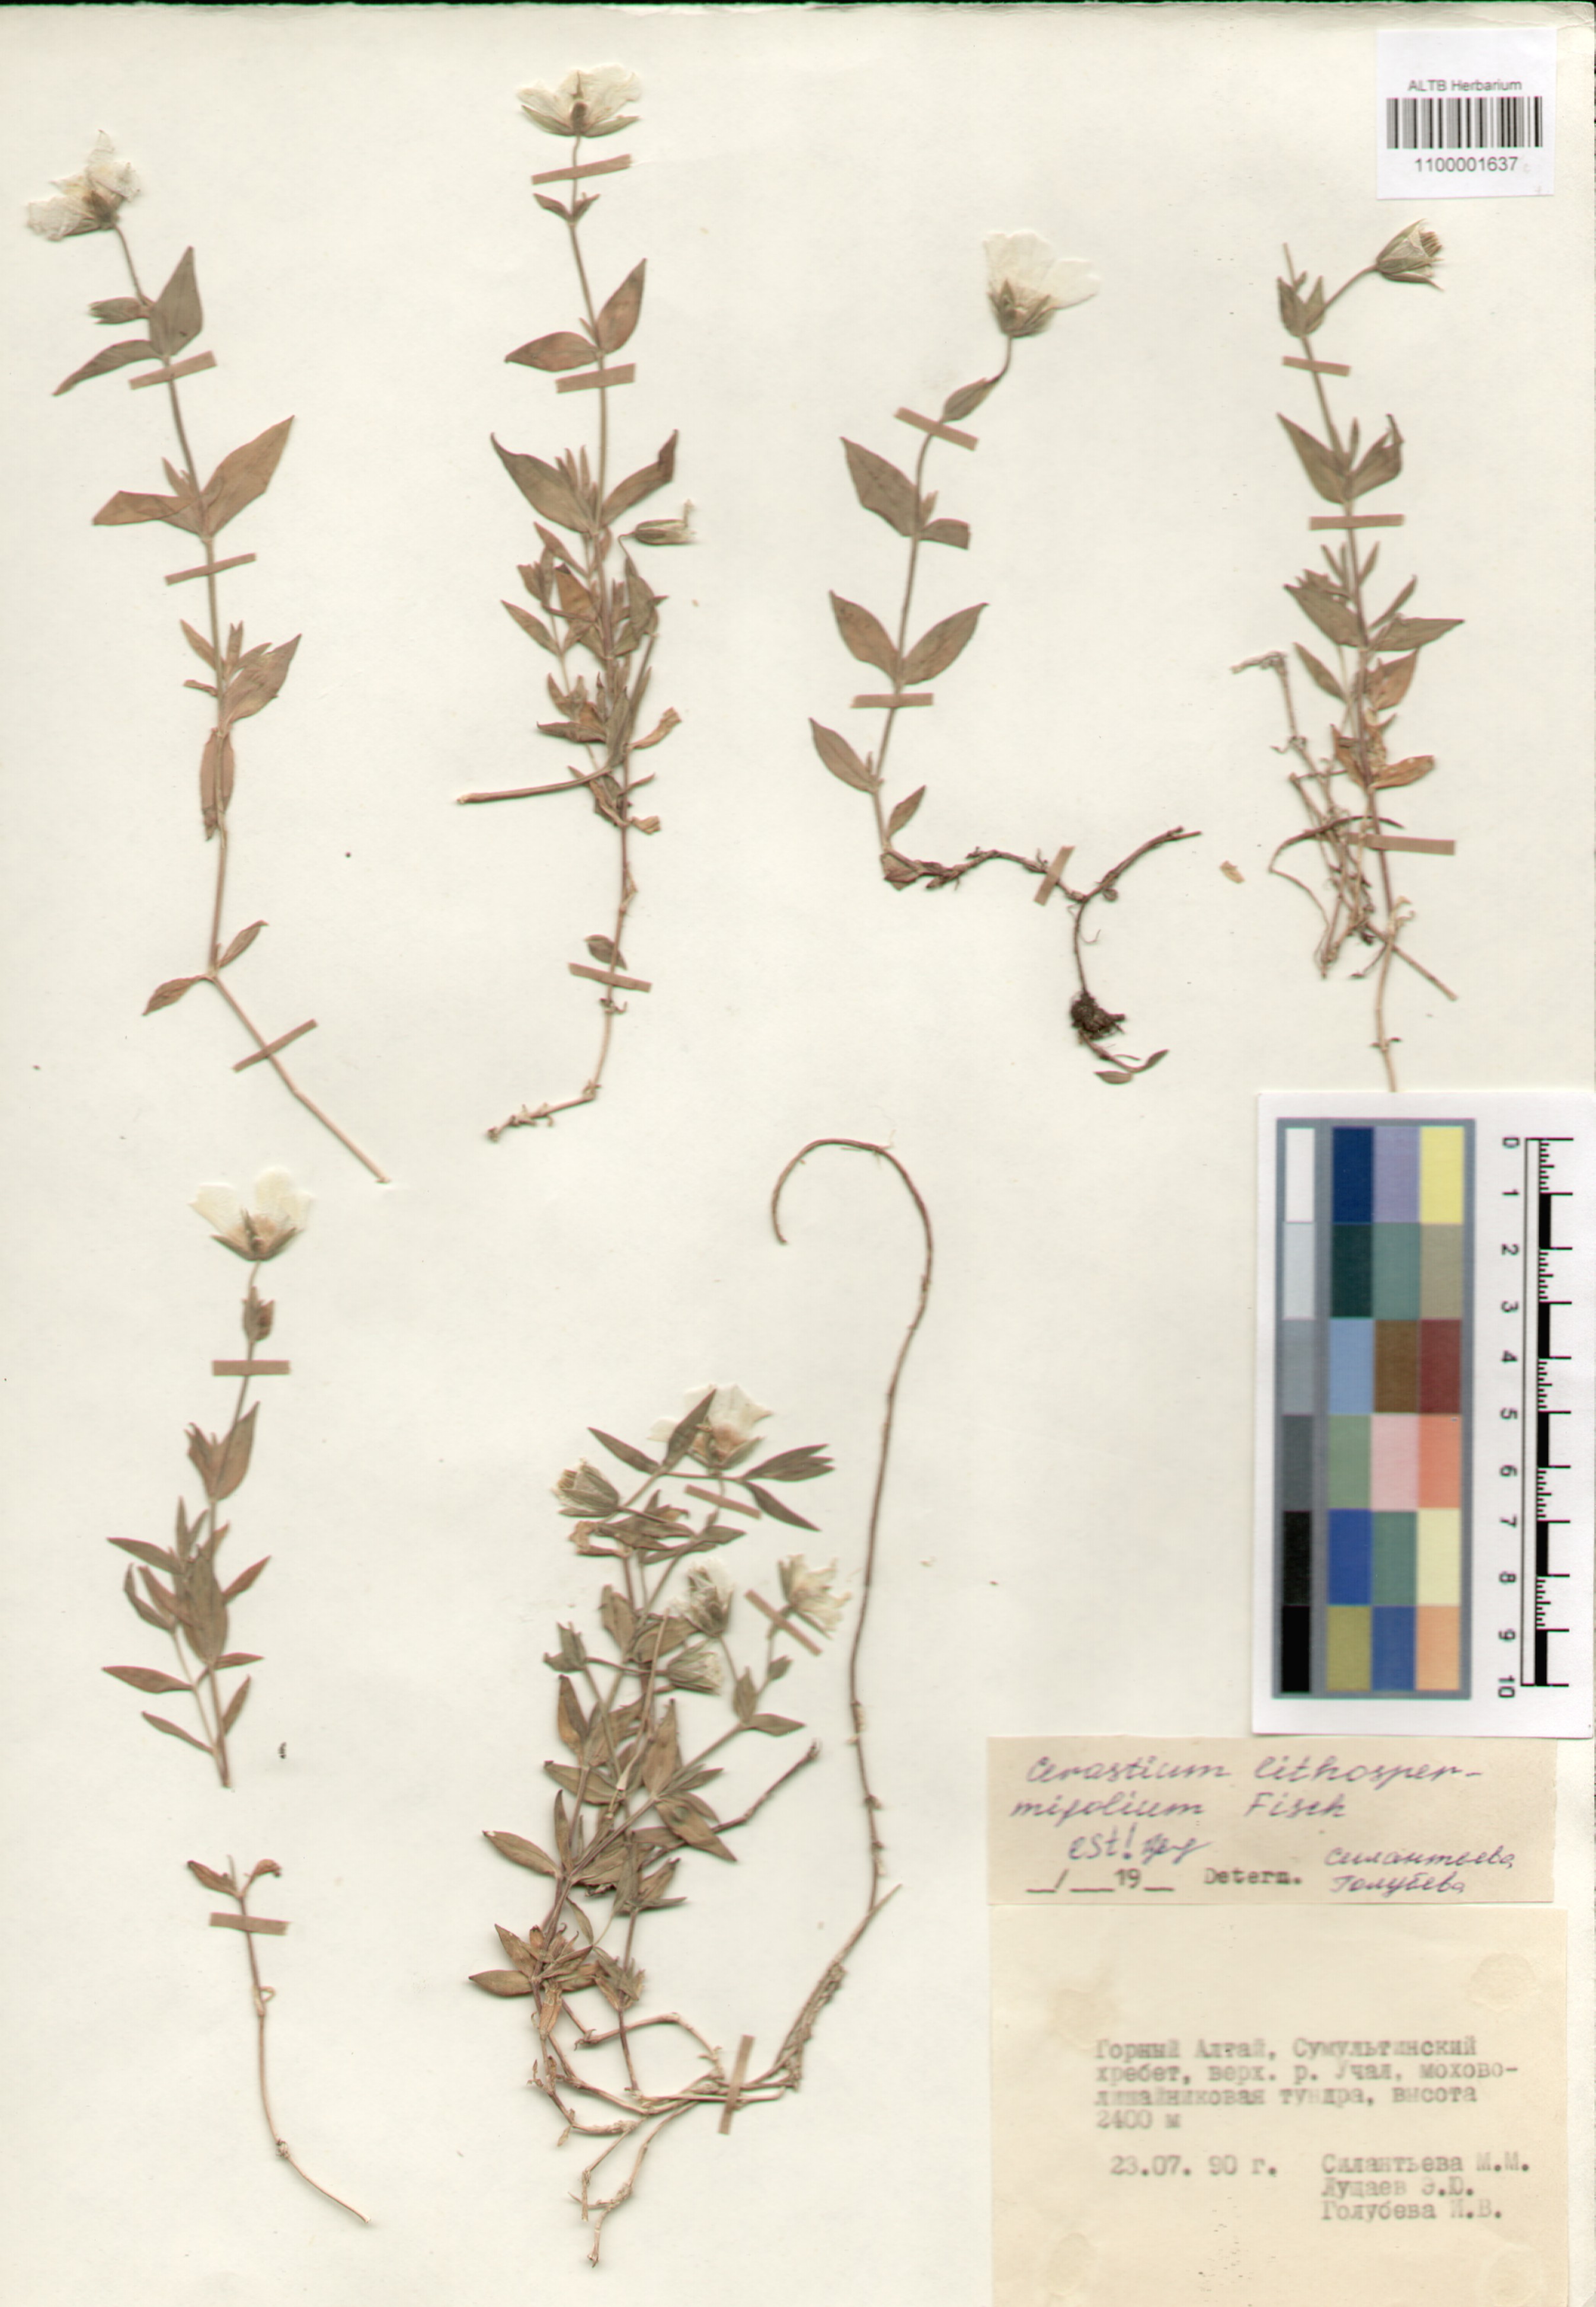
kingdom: Plantae
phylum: Tracheophyta
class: Magnoliopsida
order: Caryophyllales
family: Caryophyllaceae
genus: Cerastium
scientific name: Cerastium lithospermifolium
